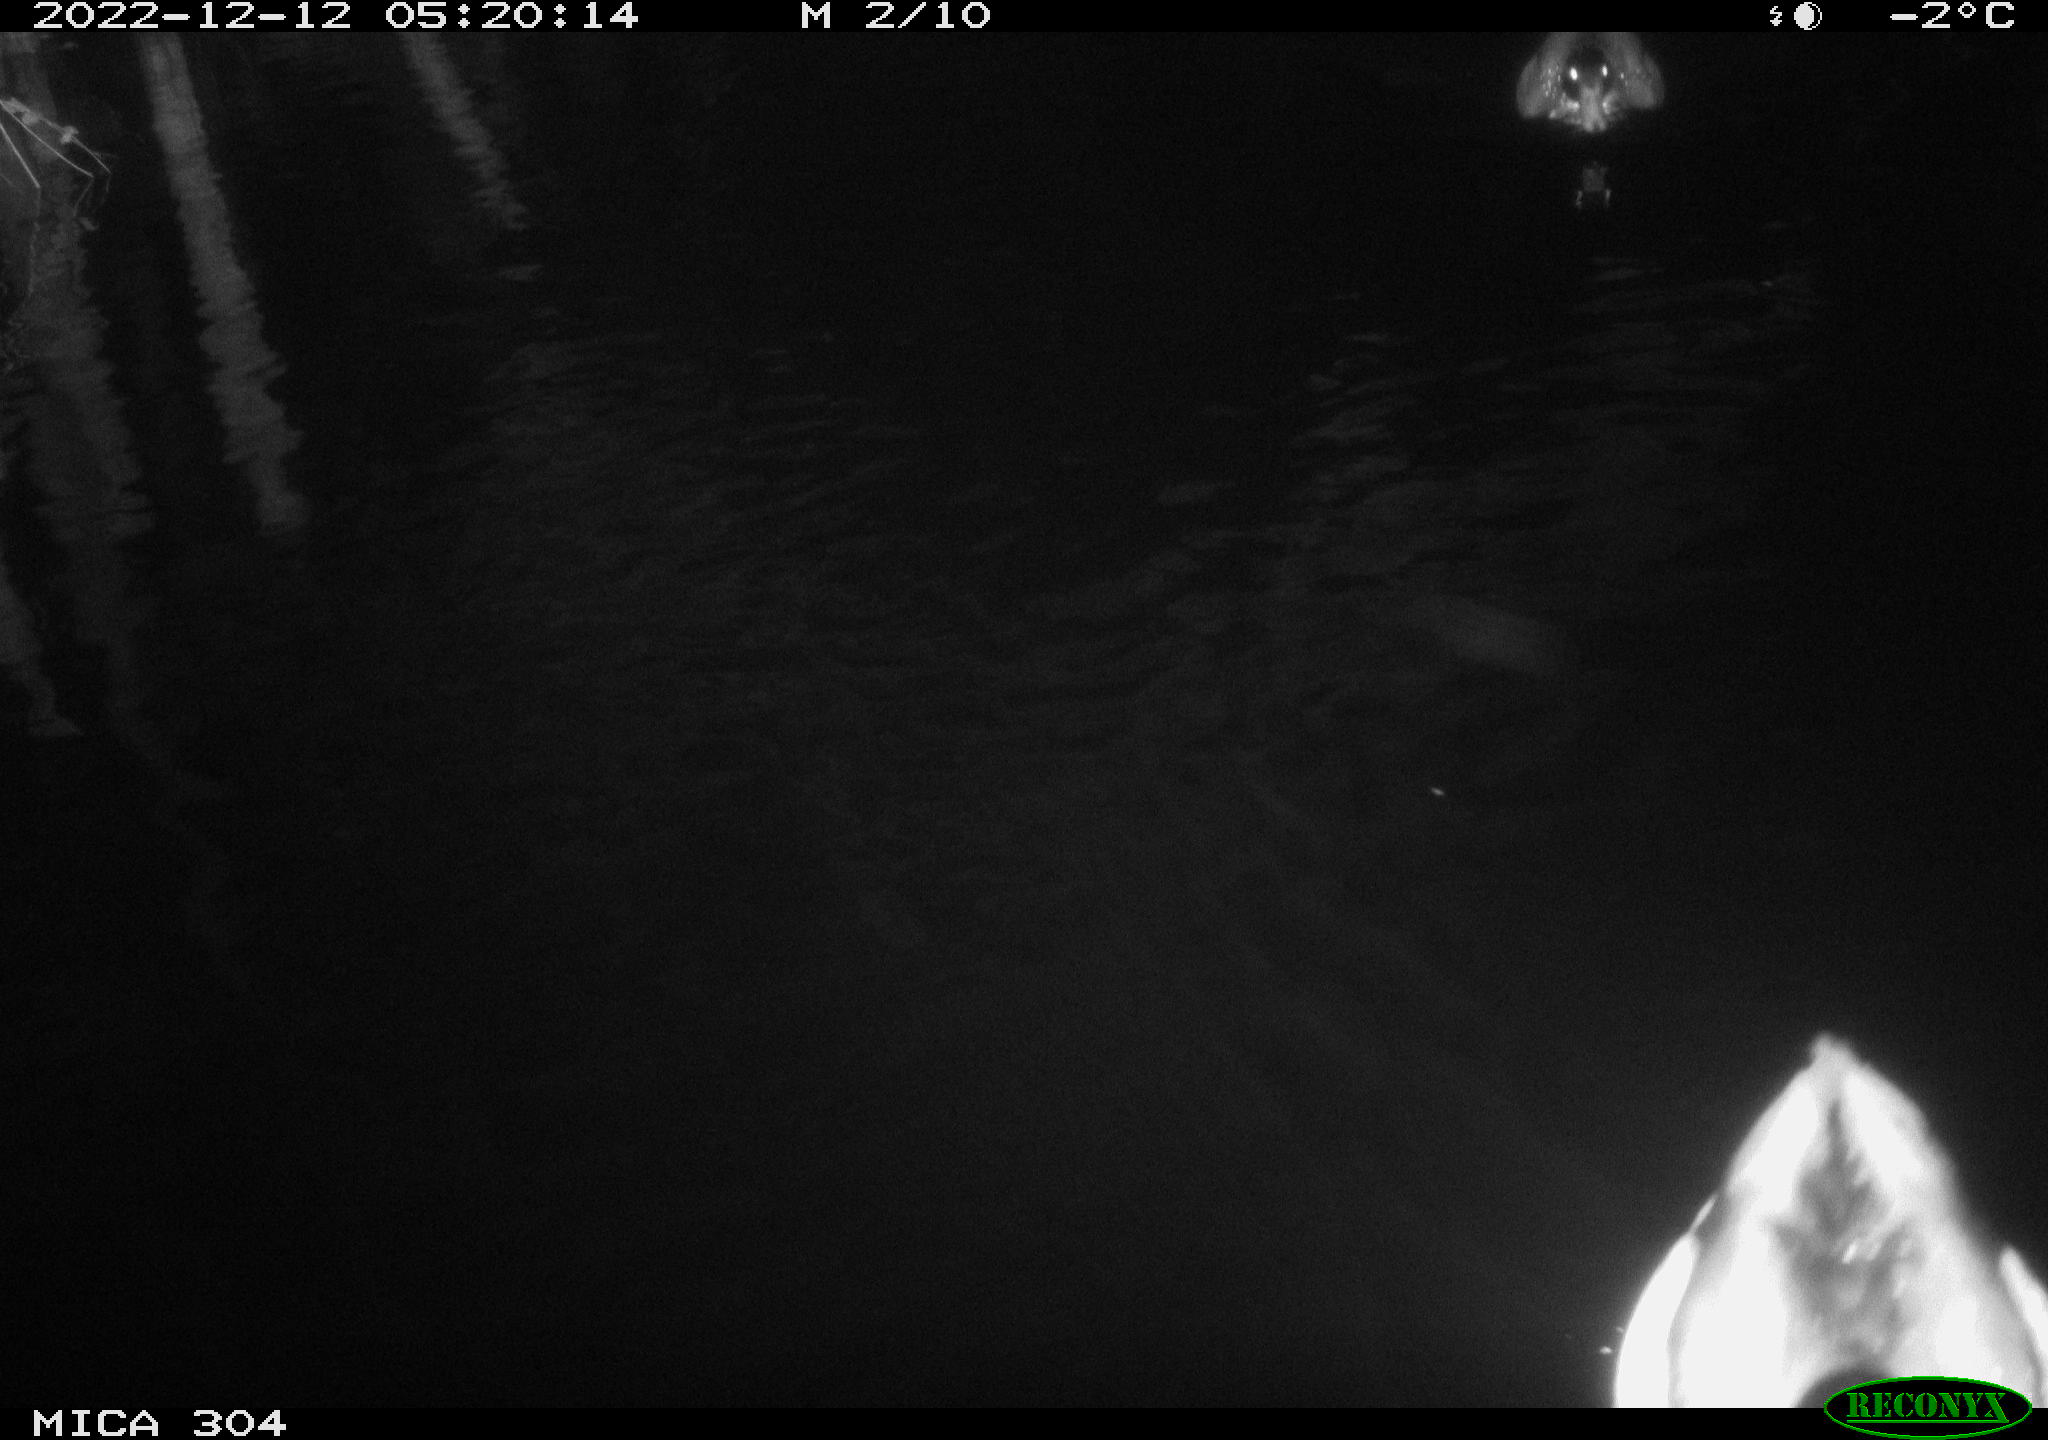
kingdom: Animalia
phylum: Chordata
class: Aves
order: Anseriformes
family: Anatidae
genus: Anas
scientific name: Anas
